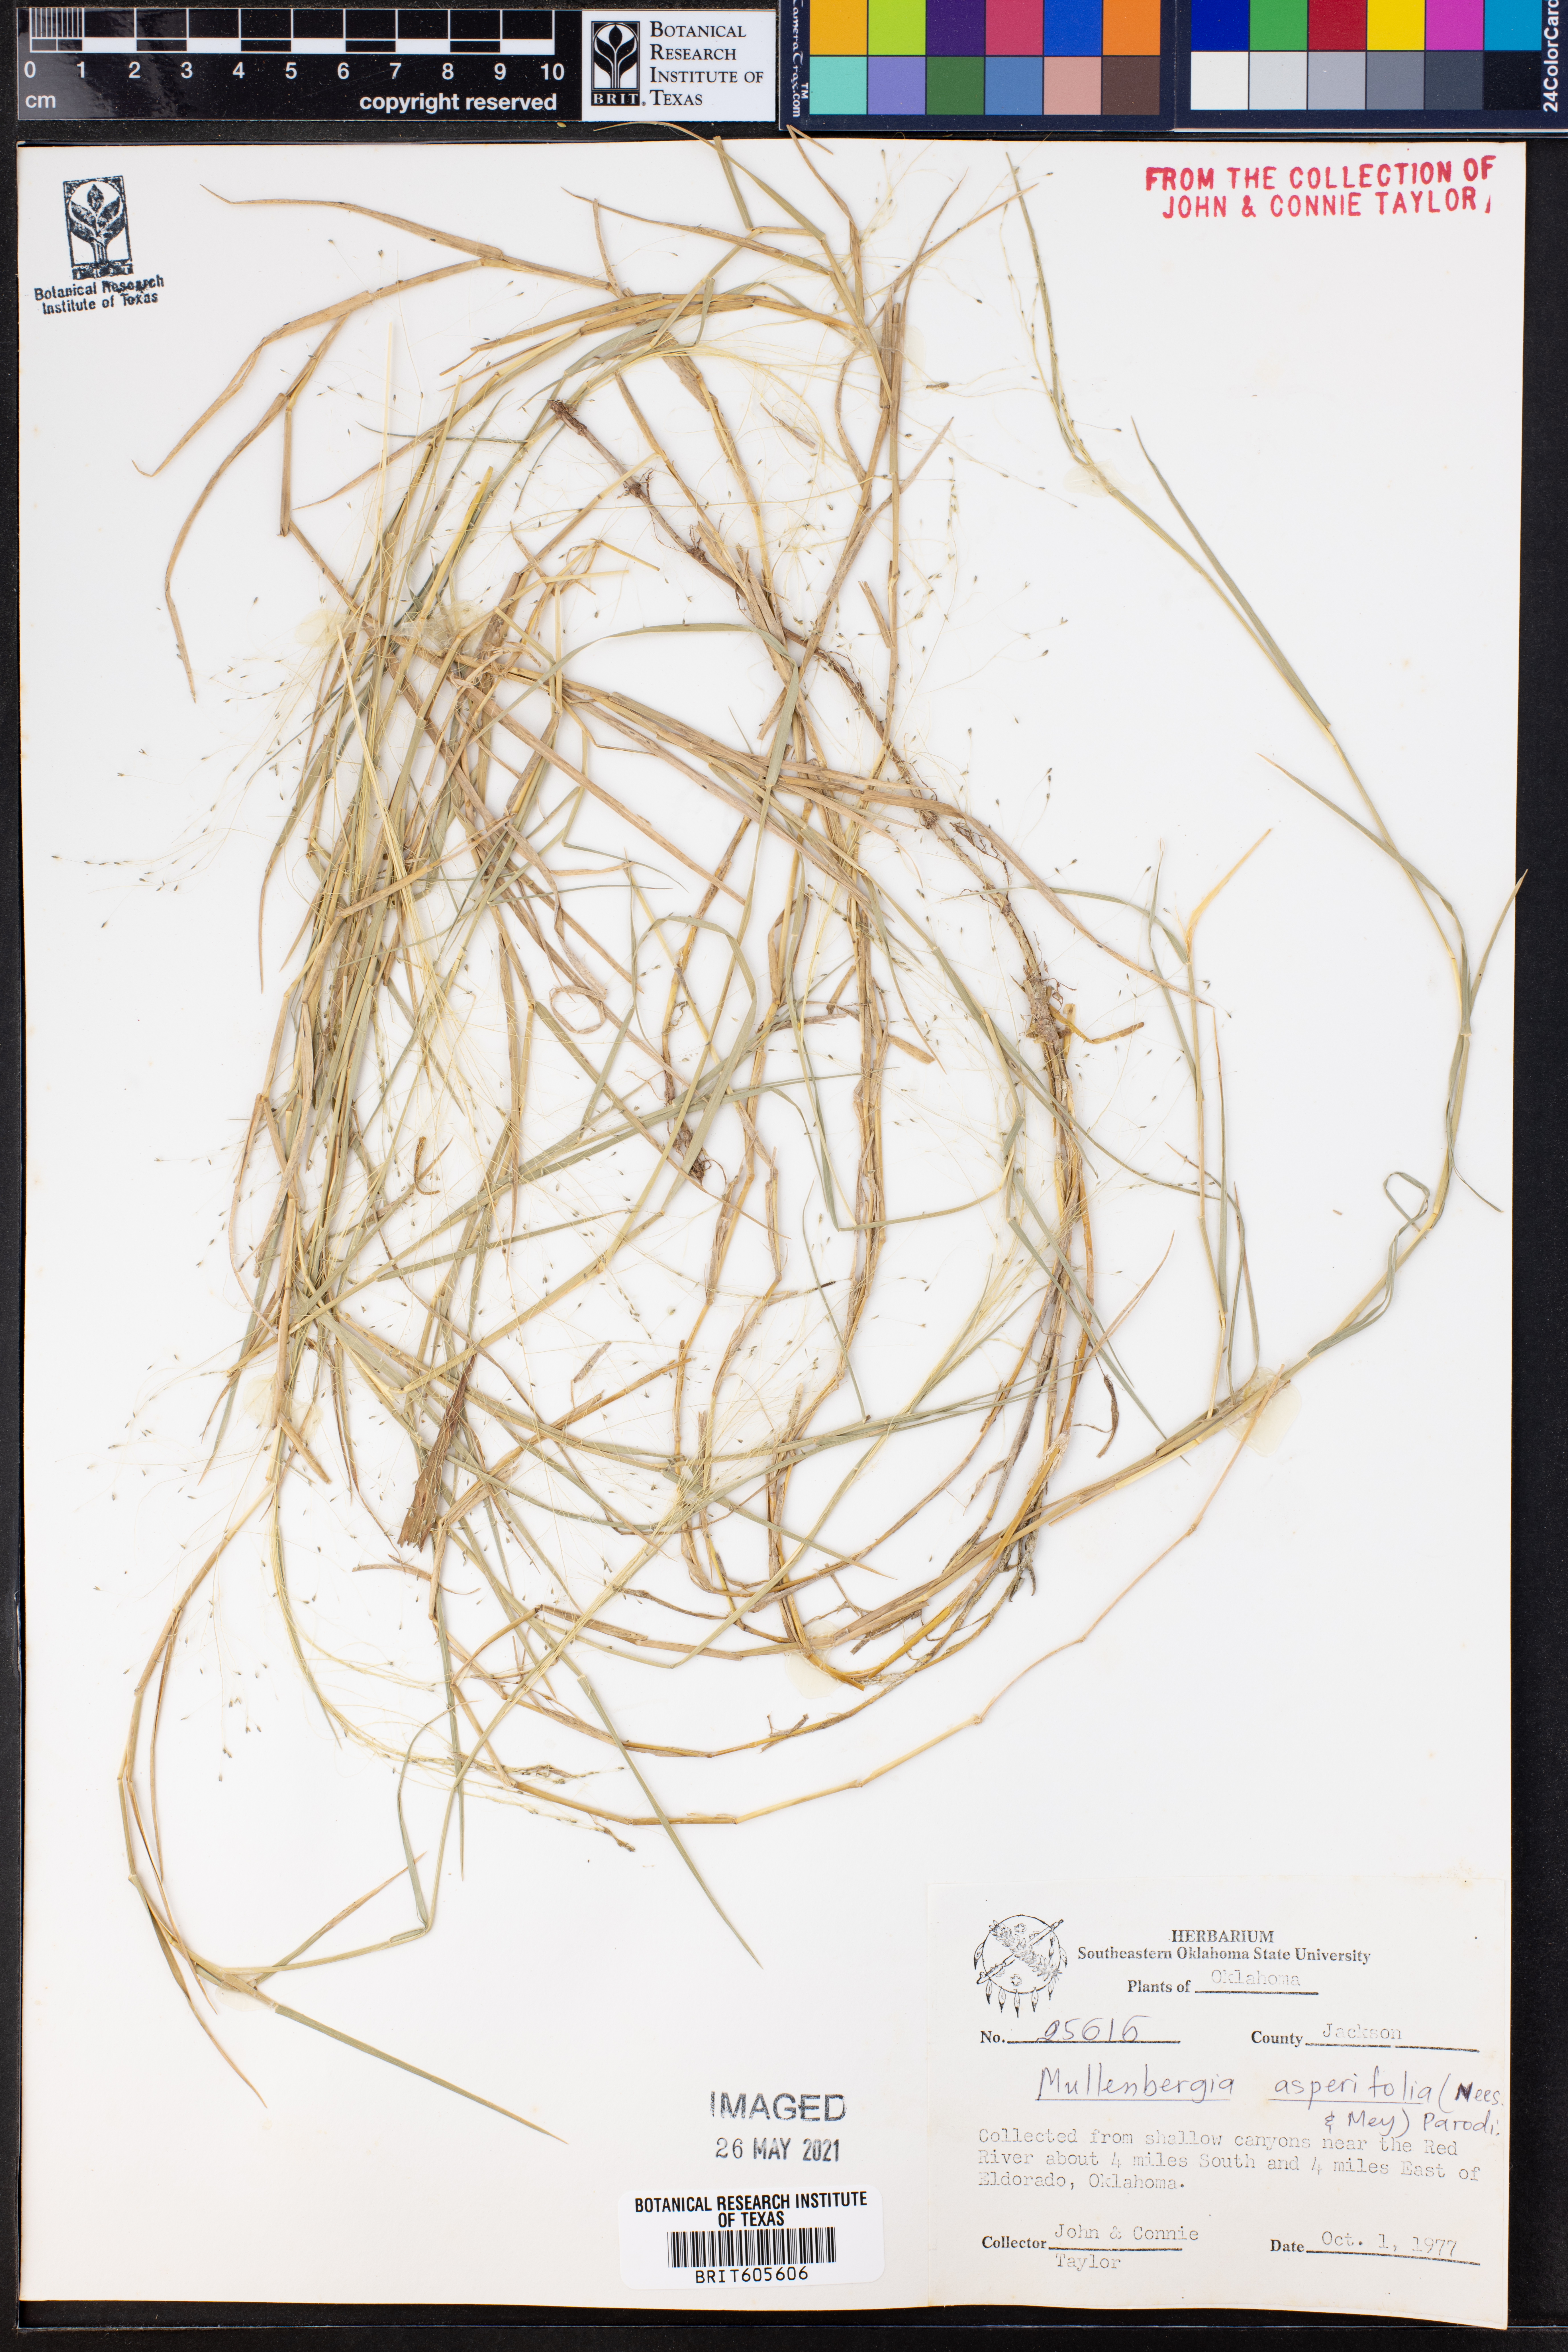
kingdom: Plantae
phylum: Tracheophyta
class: Liliopsida
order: Poales
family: Poaceae
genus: Muhlenbergia
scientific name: Muhlenbergia asperifolia
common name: Alkali muhly
